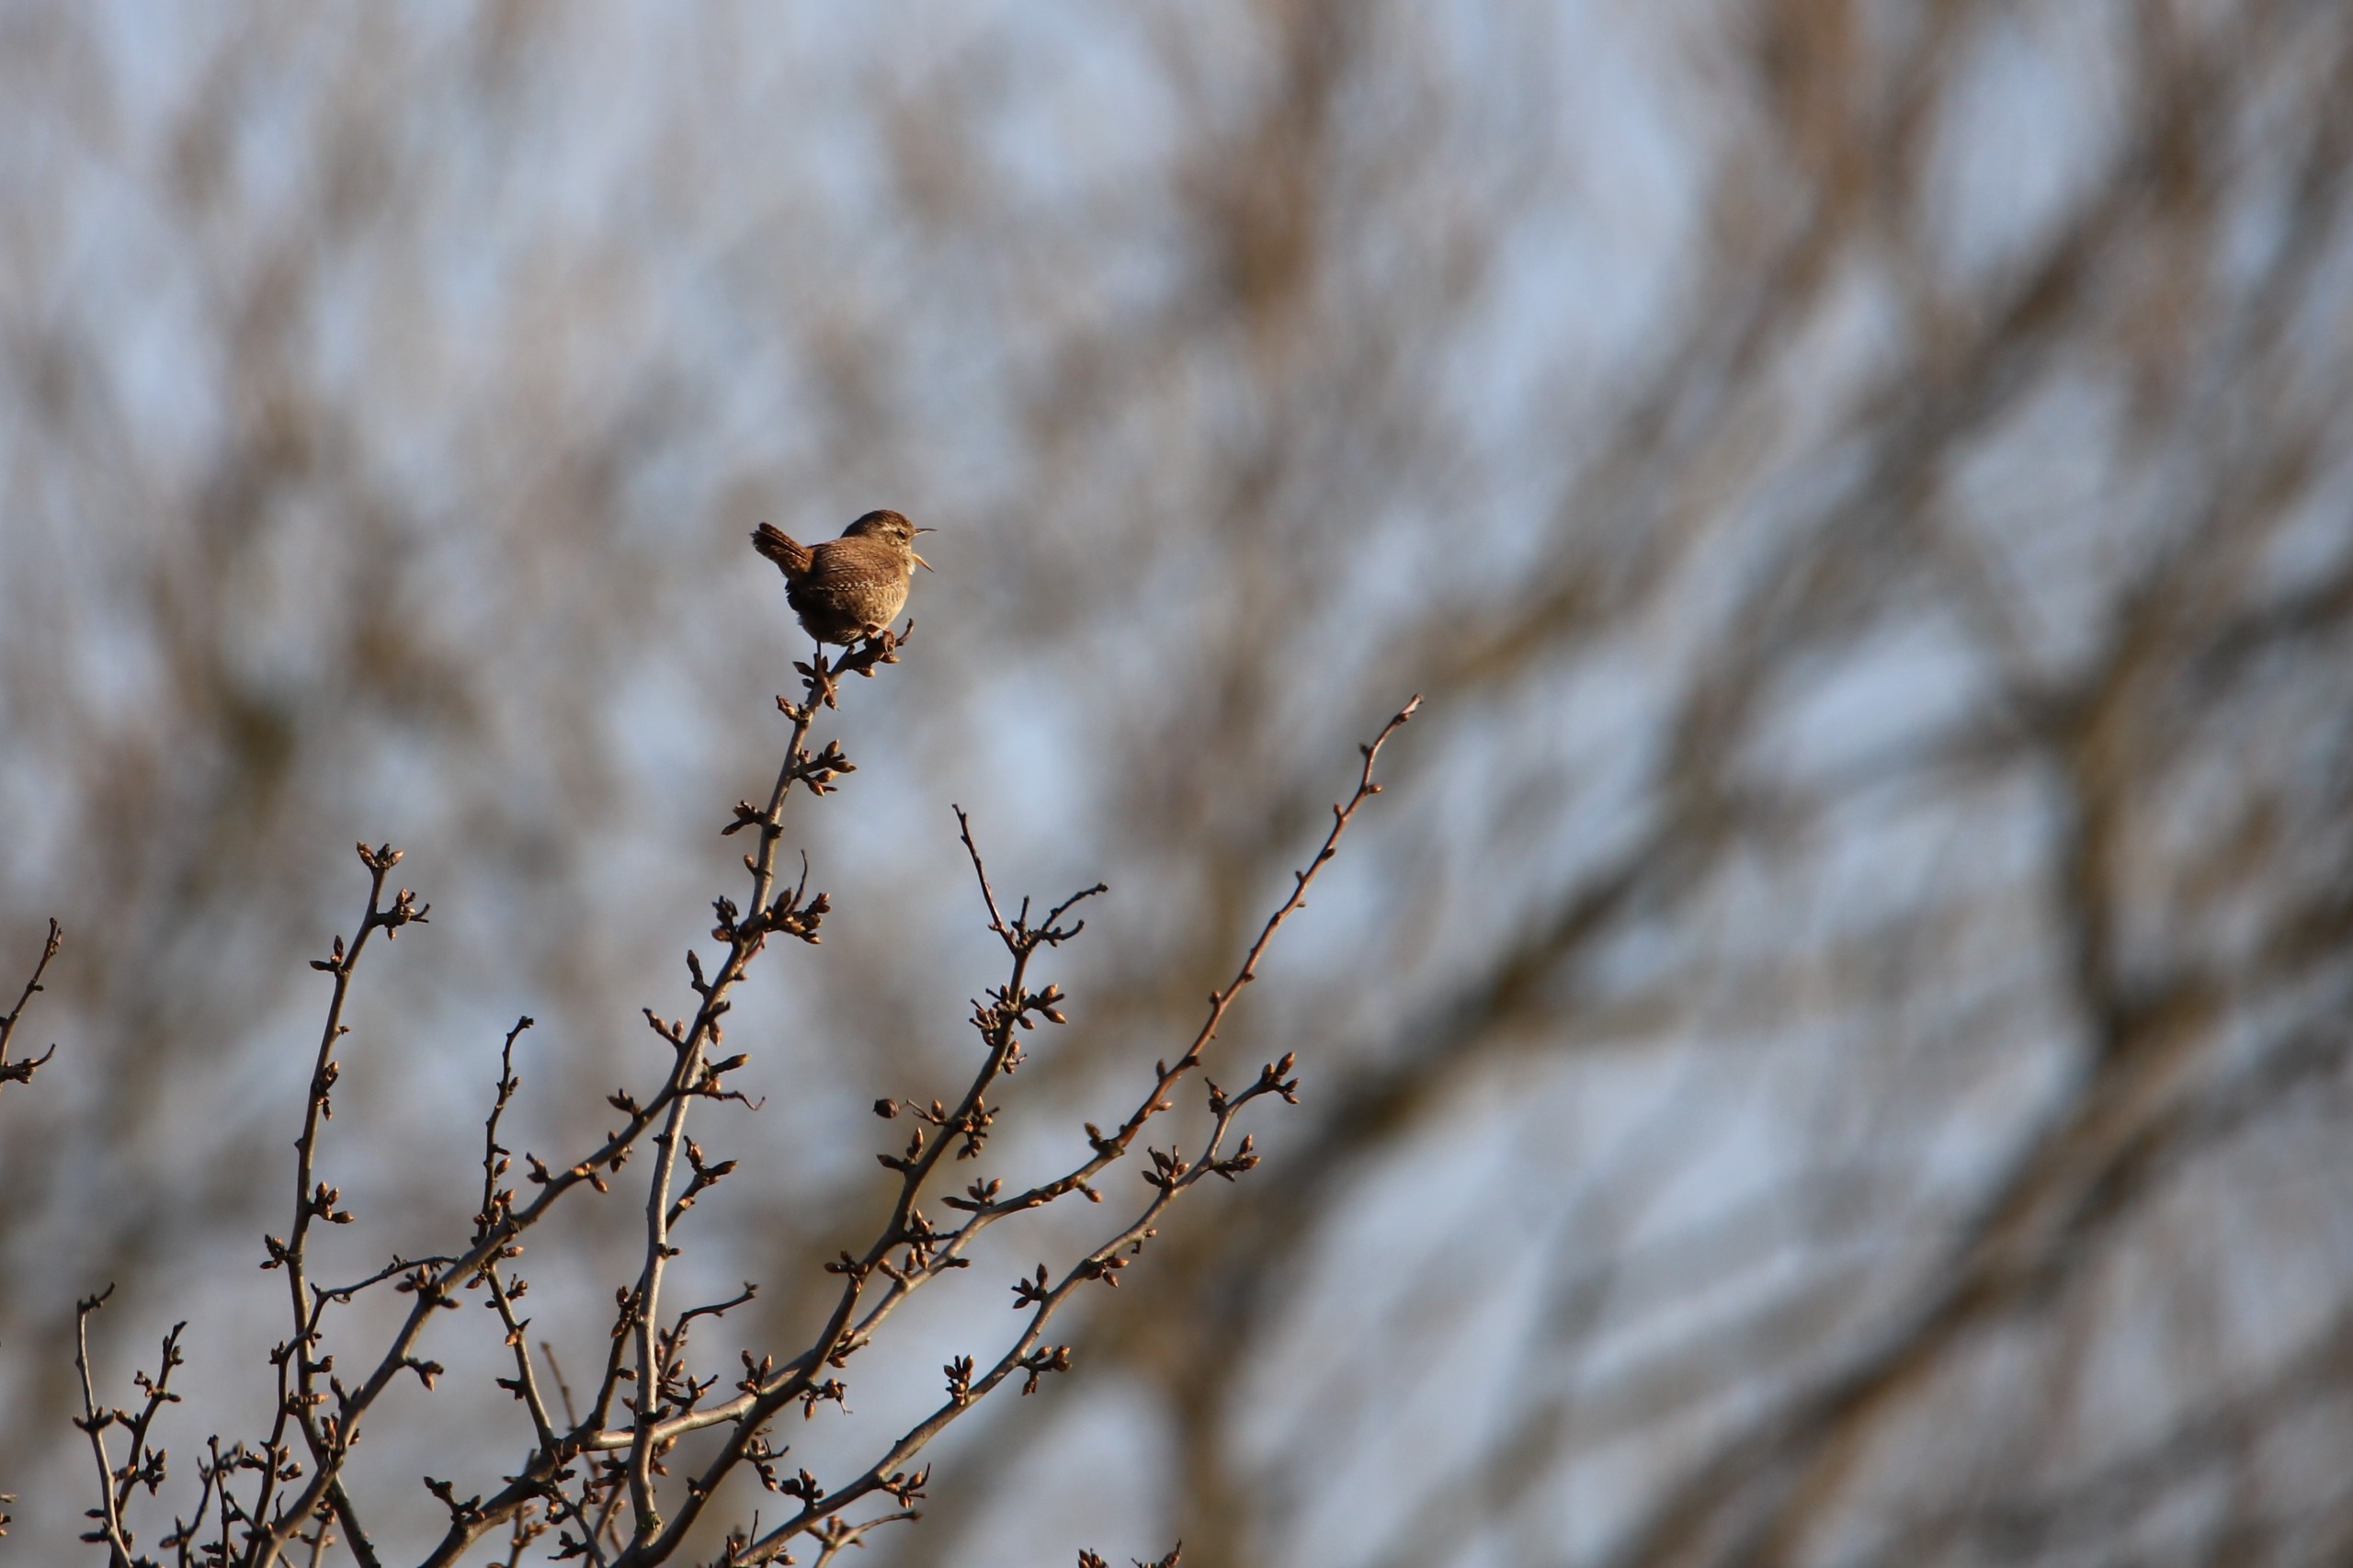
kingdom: Animalia
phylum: Chordata
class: Aves
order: Passeriformes
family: Troglodytidae
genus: Troglodytes
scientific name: Troglodytes troglodytes
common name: Gærdesmutte
